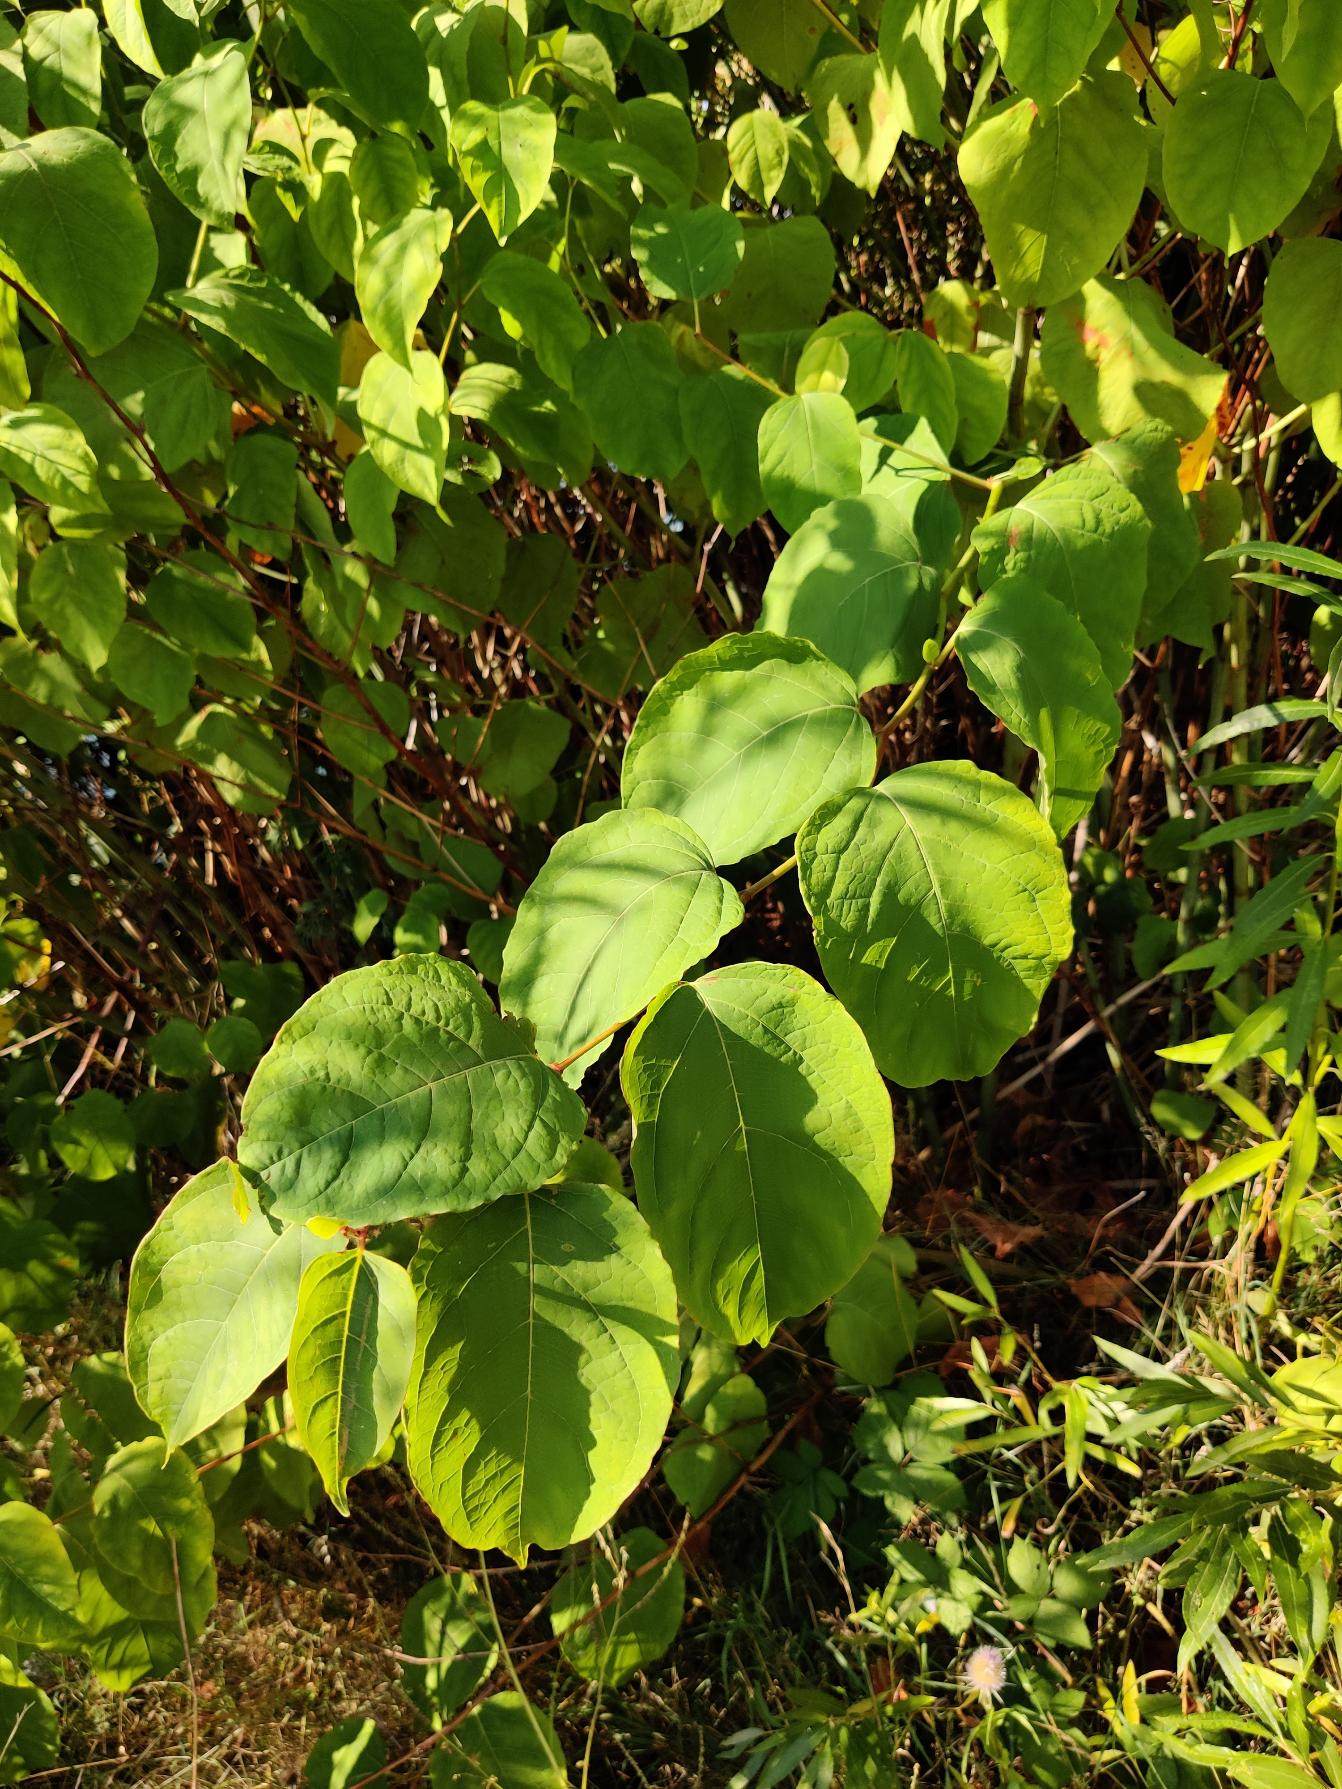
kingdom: Plantae
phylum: Tracheophyta
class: Magnoliopsida
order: Caryophyllales
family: Polygonaceae
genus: Reynoutria
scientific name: Reynoutria bohemica
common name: Hybrid-pileurt
